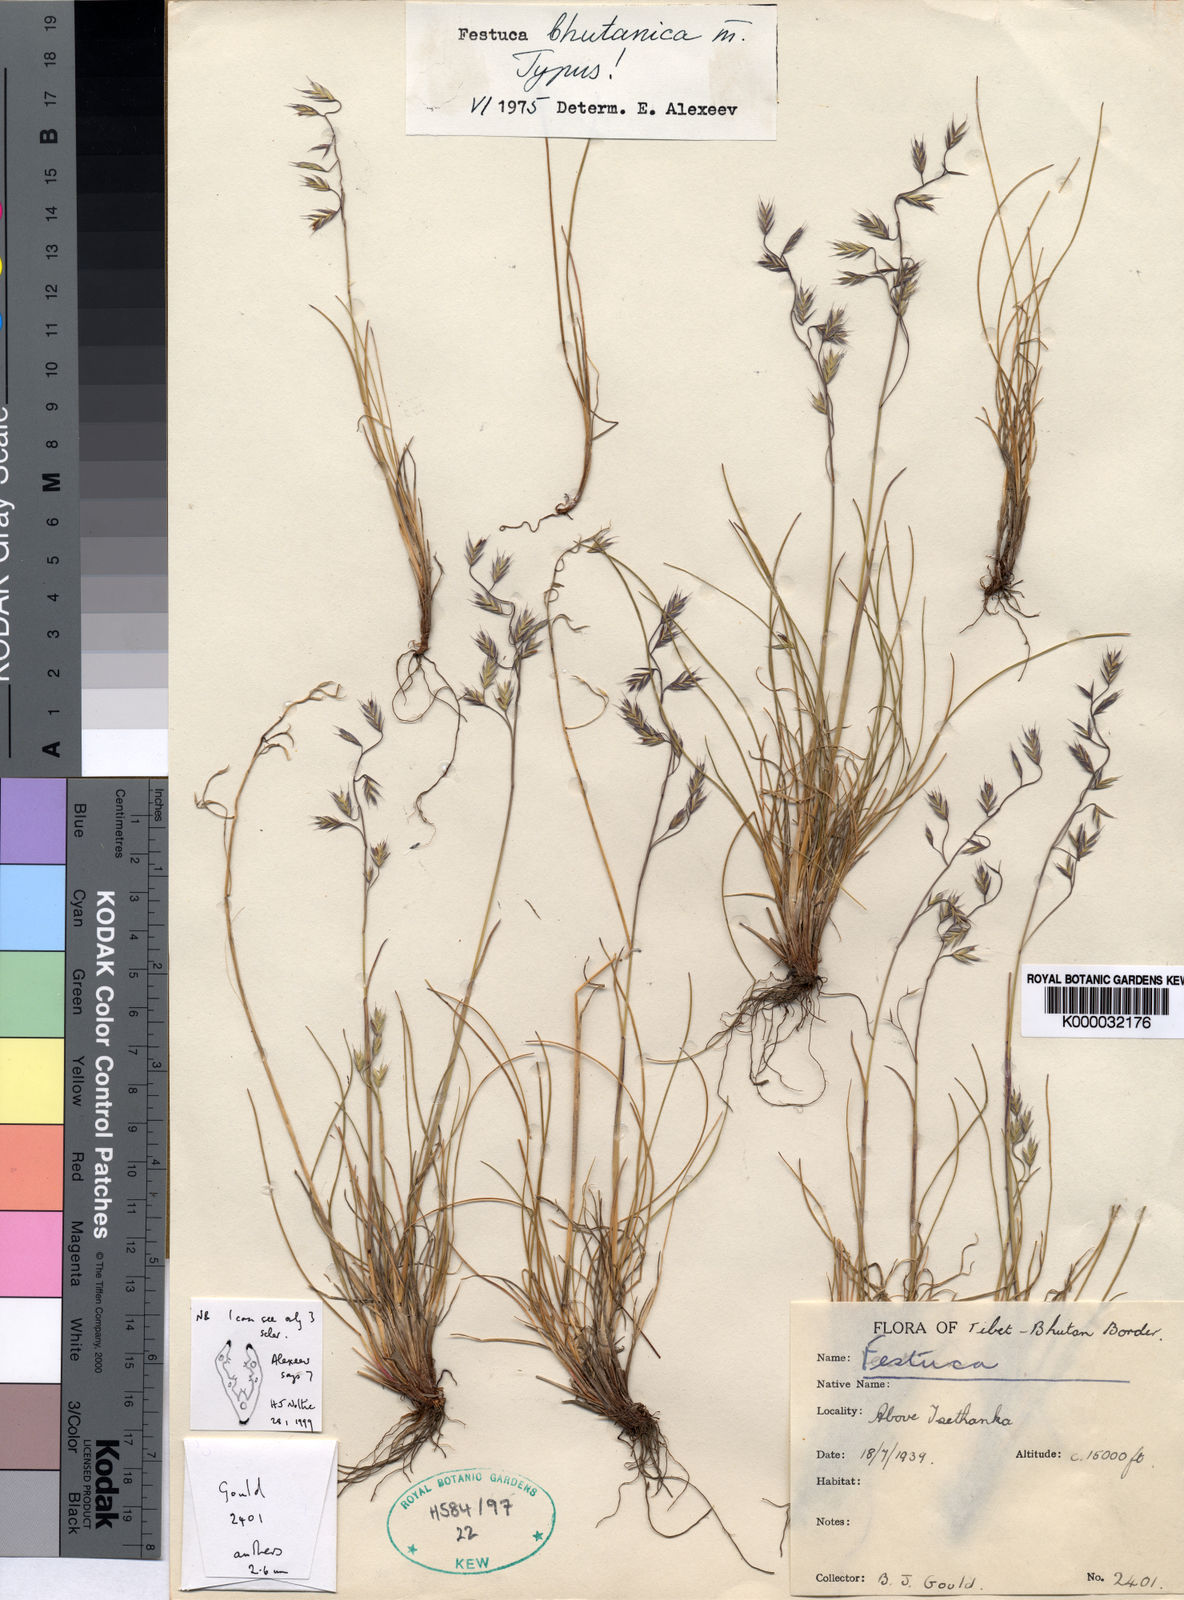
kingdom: Plantae
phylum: Tracheophyta
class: Liliopsida
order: Poales
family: Poaceae
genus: Festuca
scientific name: Festuca bhutanica
